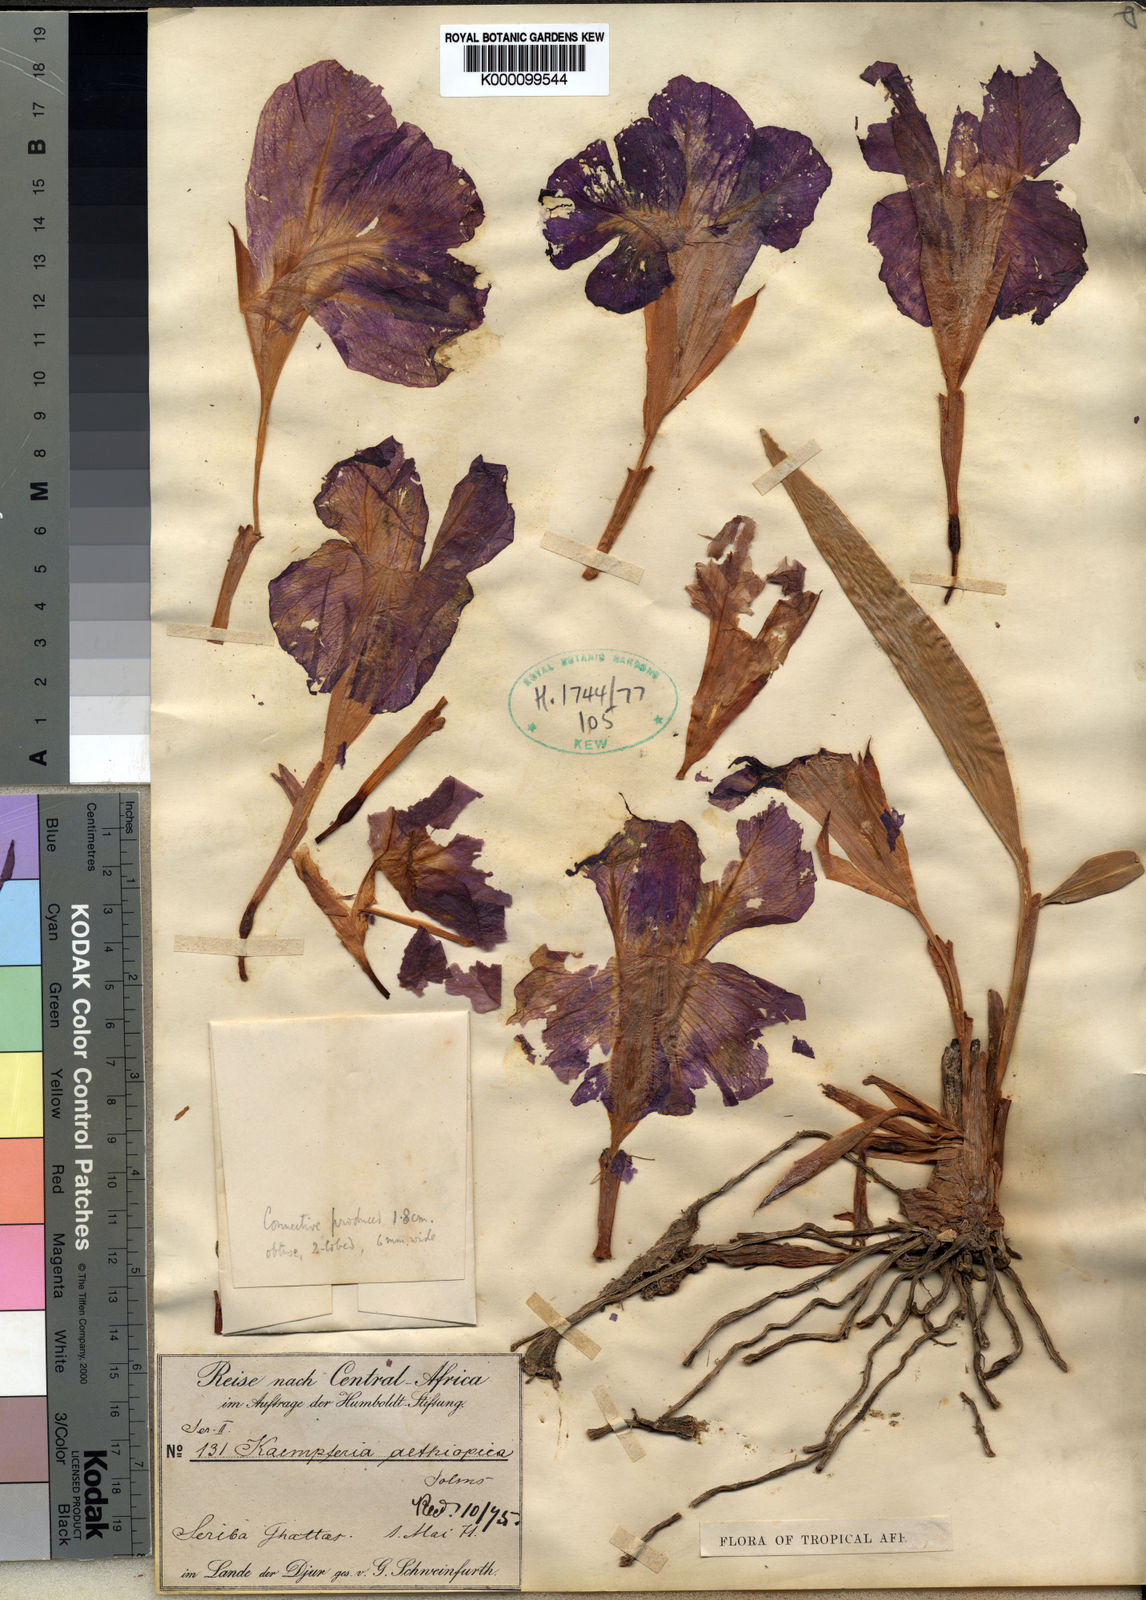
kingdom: Plantae
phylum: Tracheophyta
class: Liliopsida
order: Zingiberales
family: Zingiberaceae
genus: Siphonochilus
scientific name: Siphonochilus aethiopicus
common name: African-ginger
